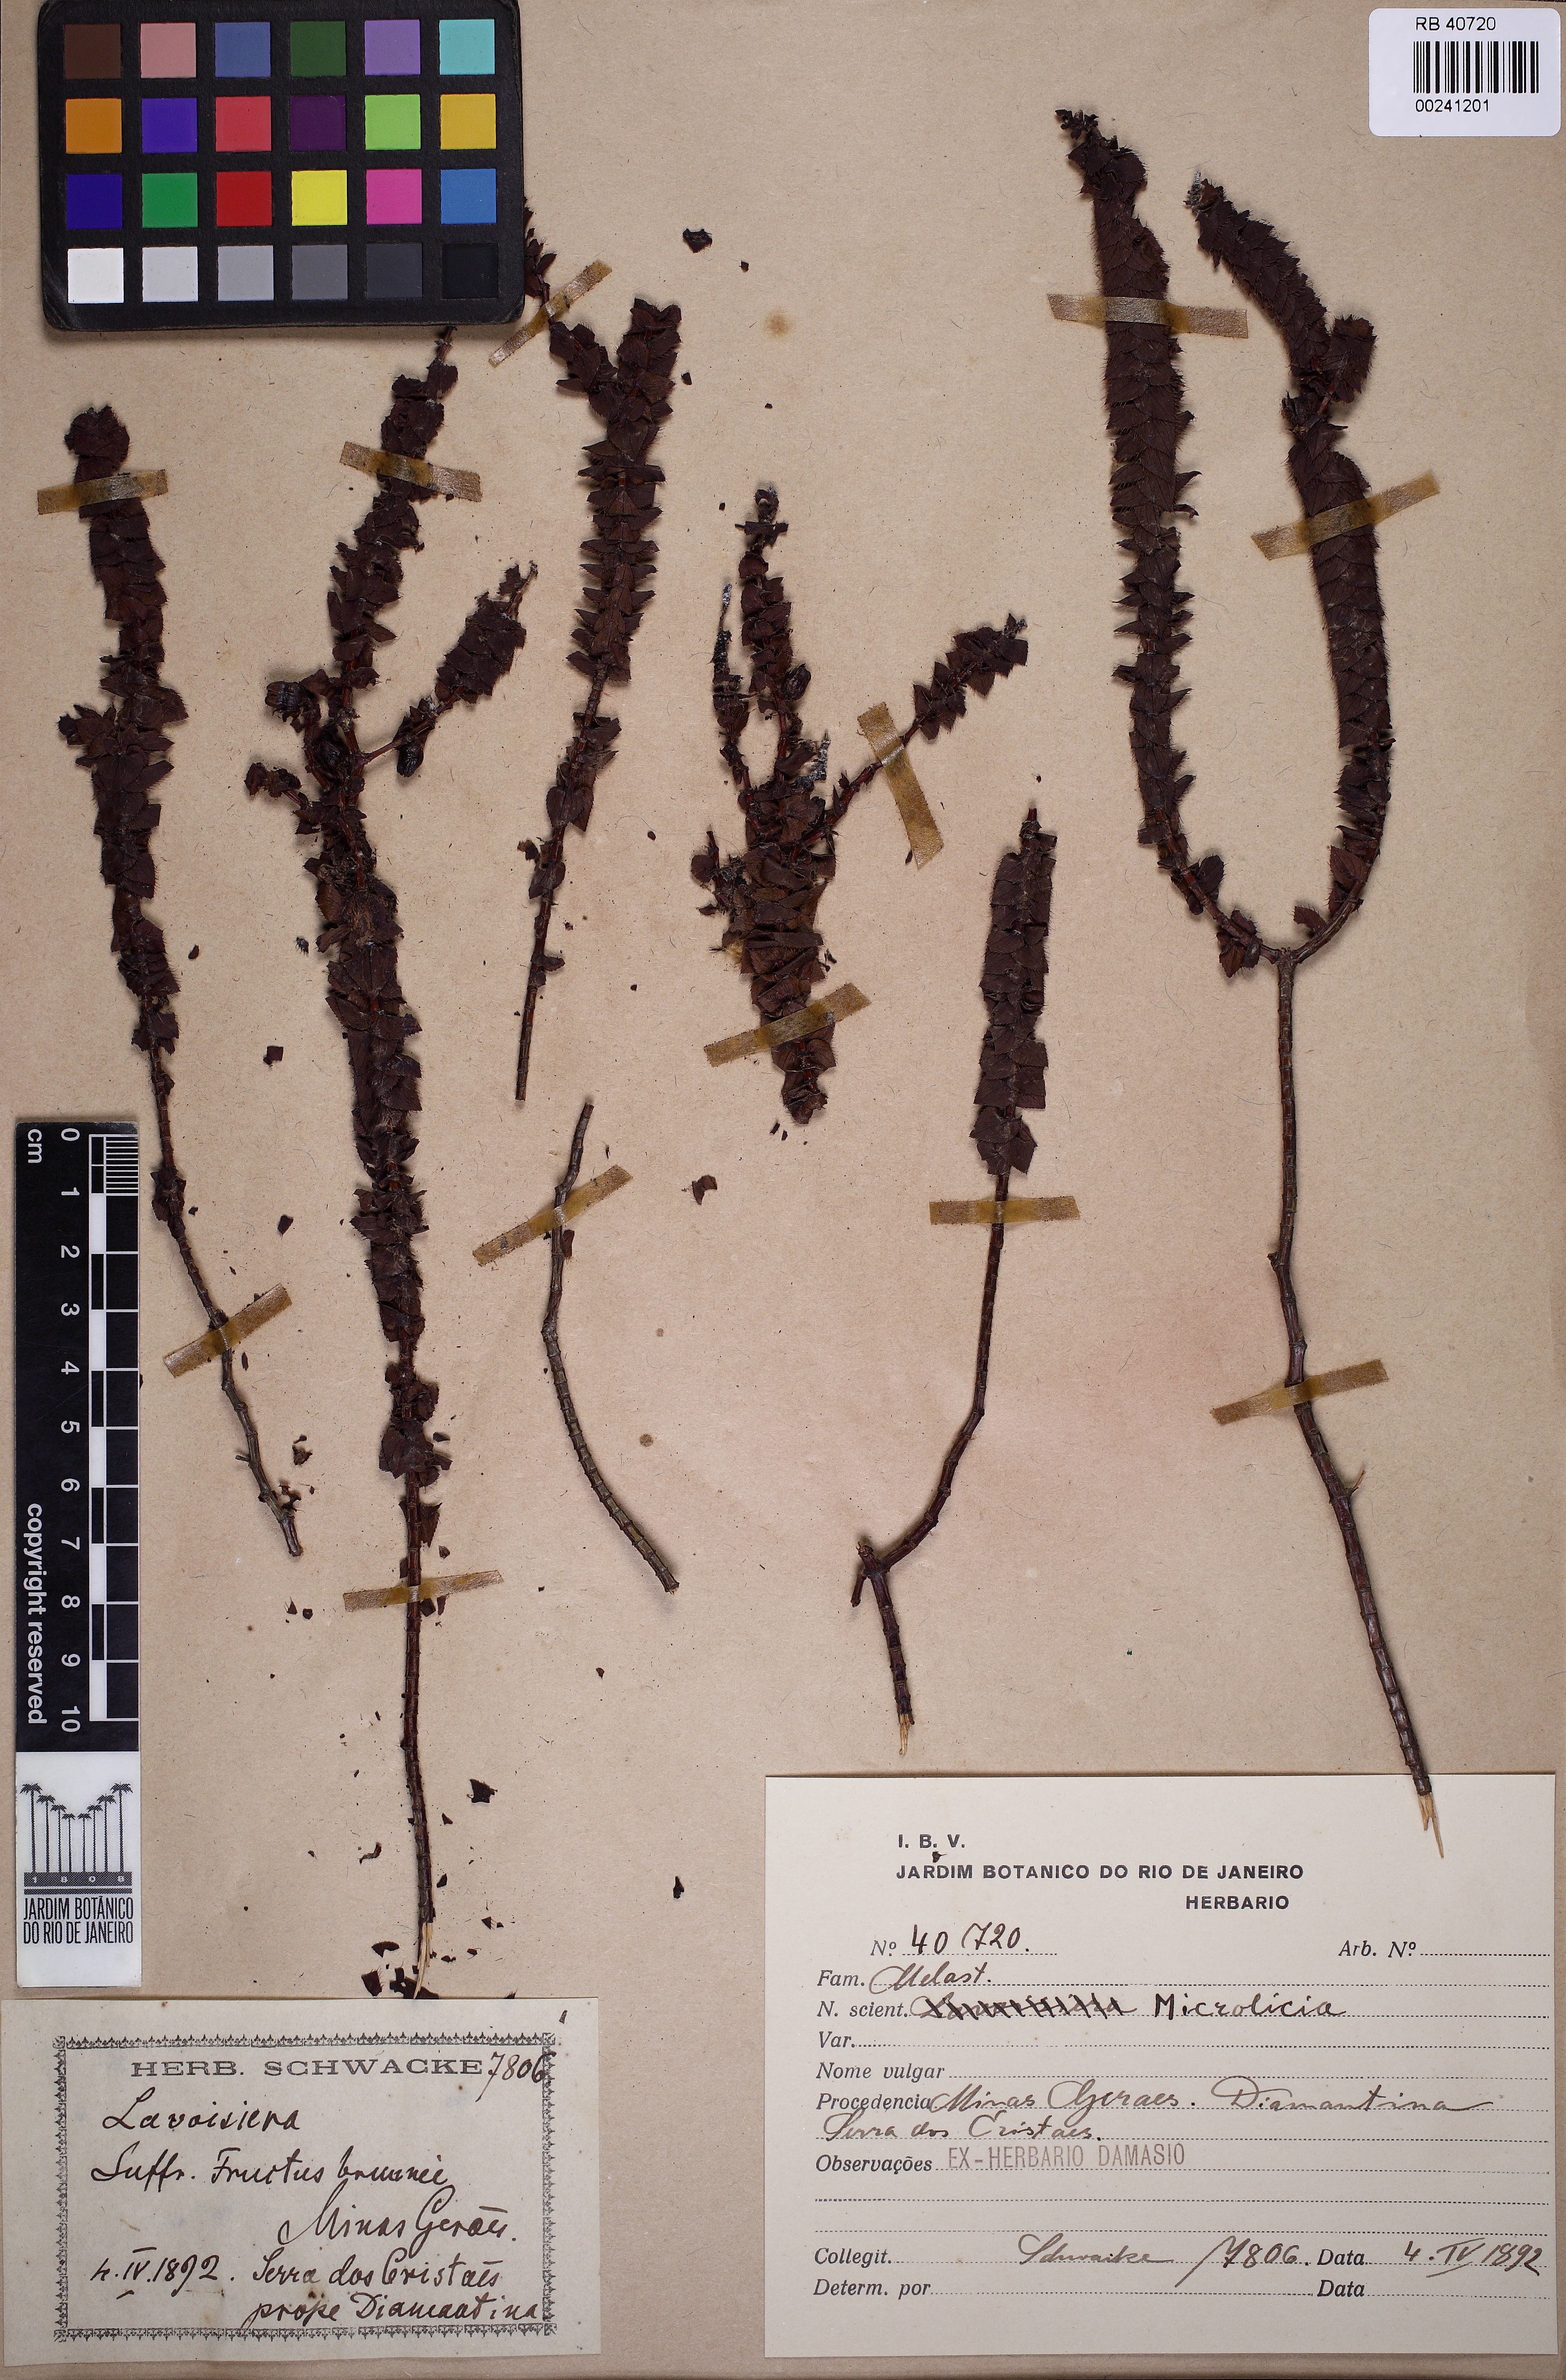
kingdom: Plantae
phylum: Tracheophyta
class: Magnoliopsida
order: Myrtales
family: Melastomataceae
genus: Microlicia
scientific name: Microlicia
